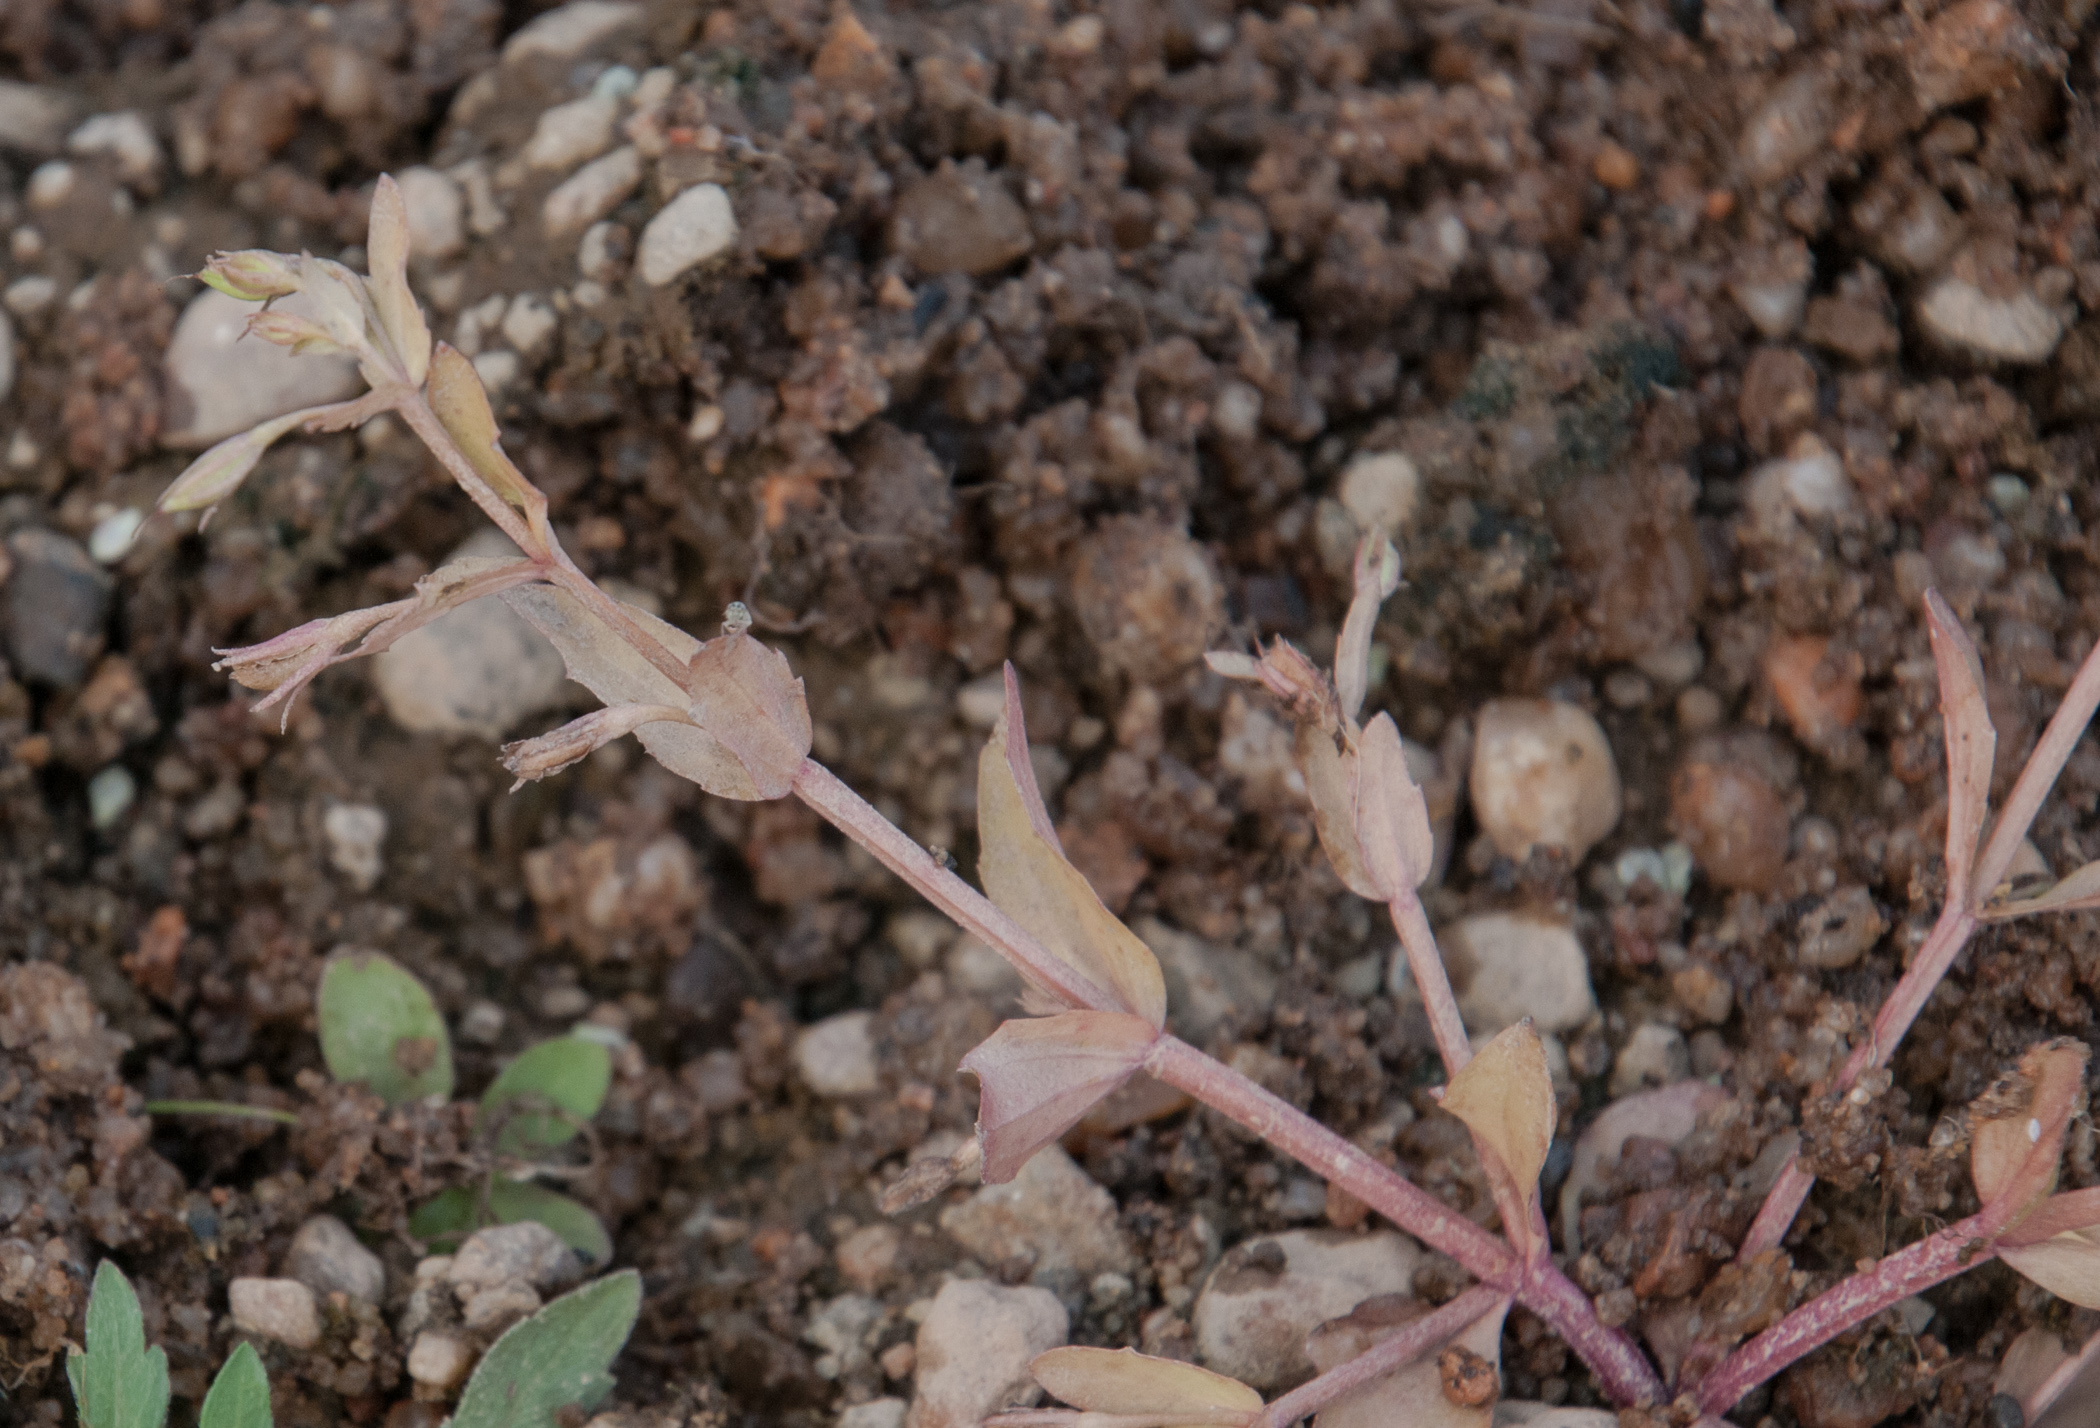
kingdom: Plantae
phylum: Tracheophyta
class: Magnoliopsida
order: Lamiales
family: Linderniaceae
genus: Lindernia
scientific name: Lindernia dubia
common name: Annual false pimpernel
